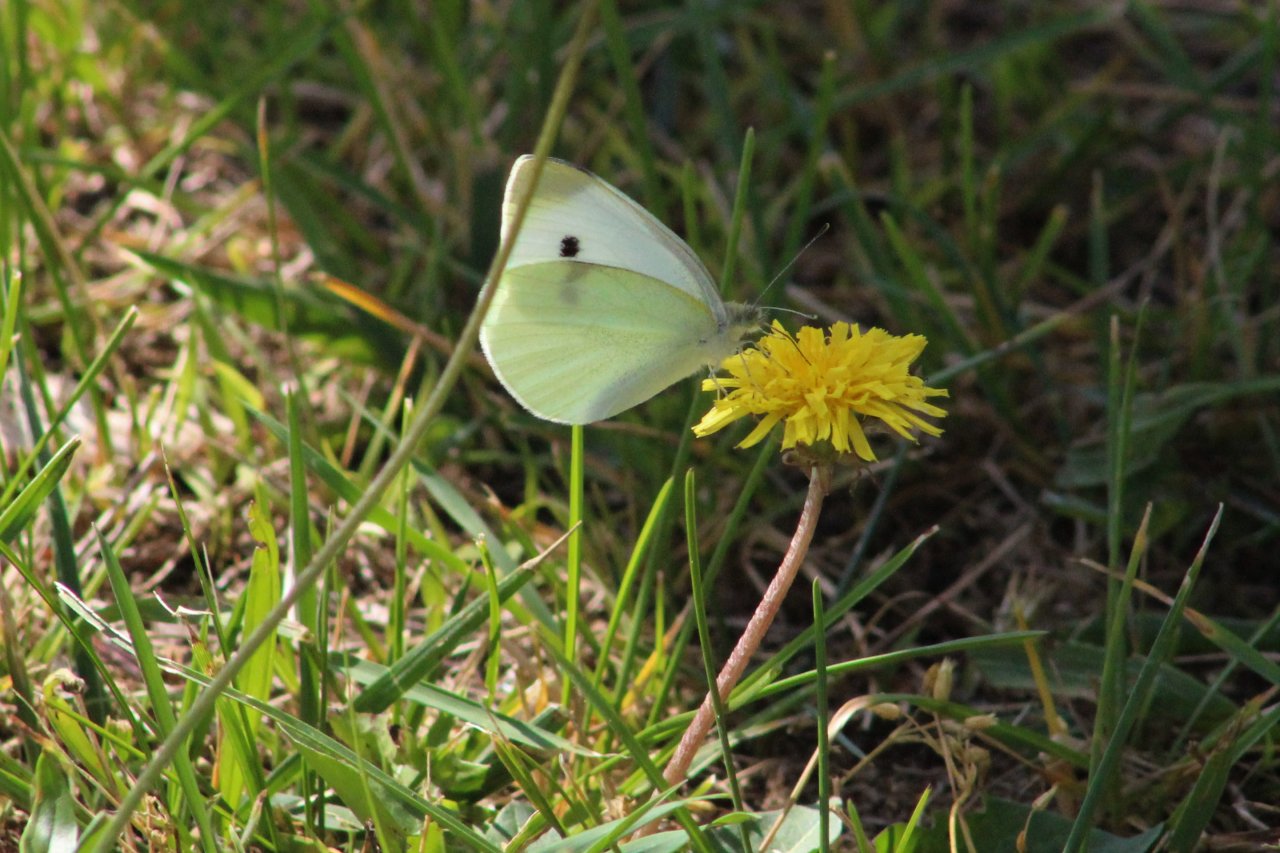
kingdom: Animalia
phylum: Arthropoda
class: Insecta
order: Lepidoptera
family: Pieridae
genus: Pieris
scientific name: Pieris rapae
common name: Cabbage White
